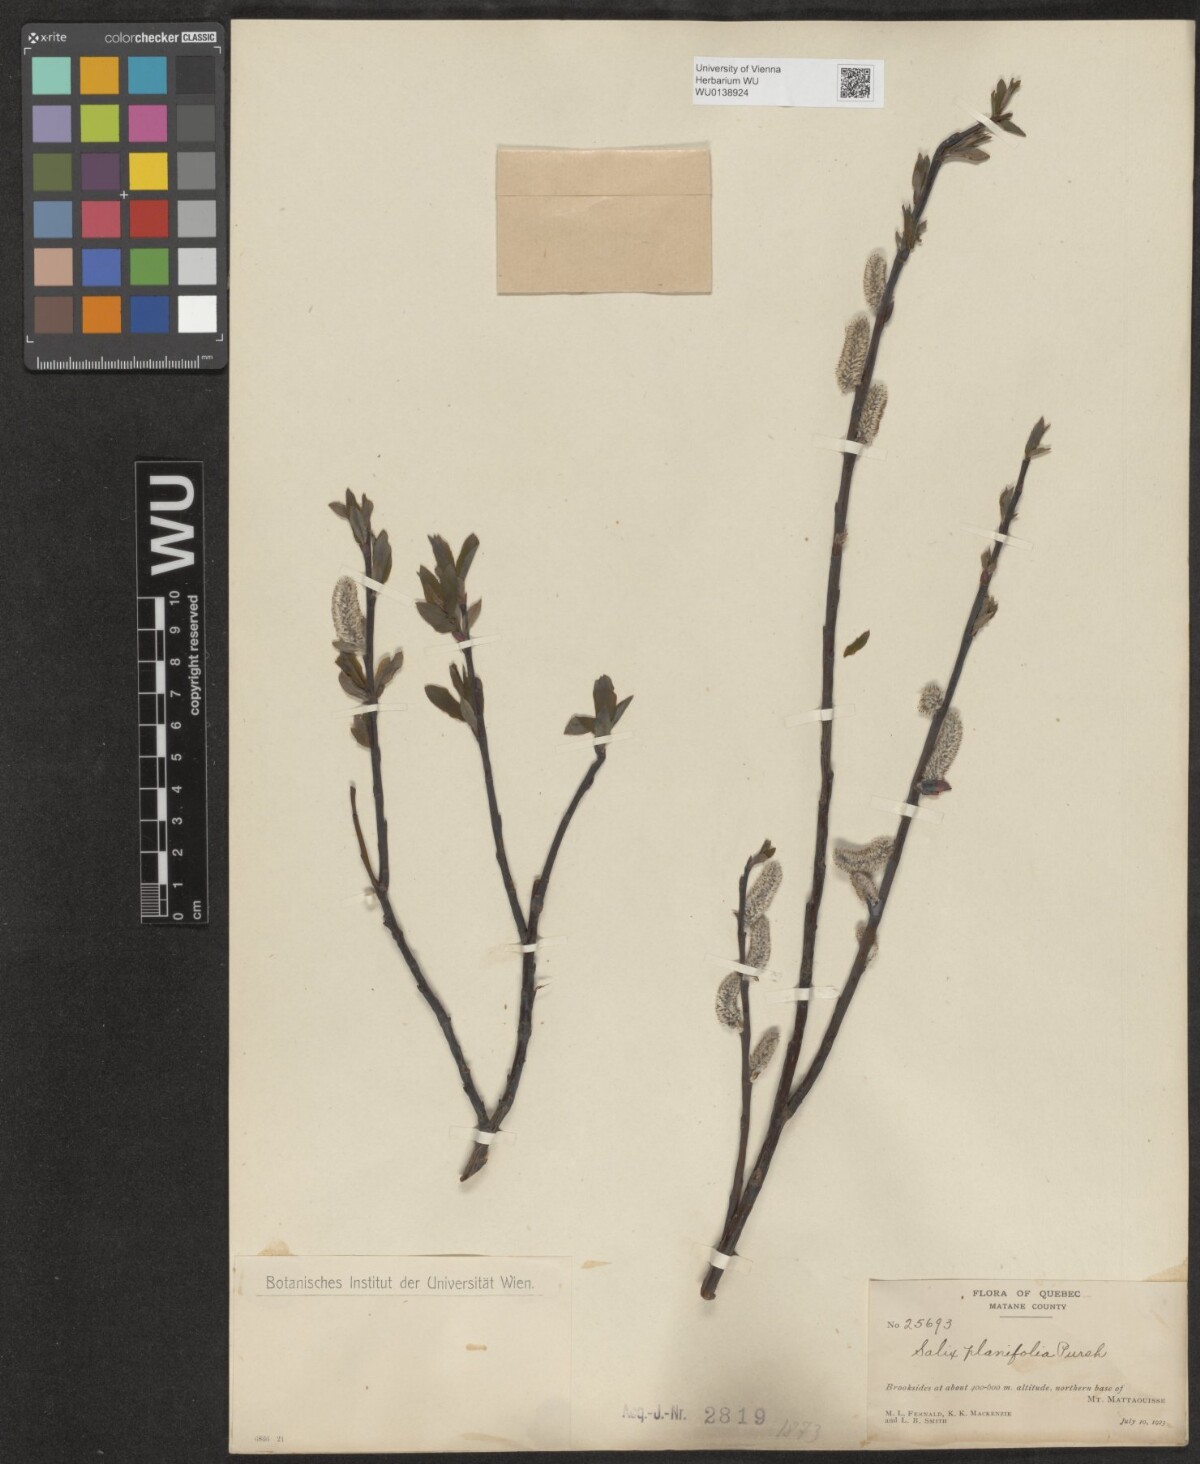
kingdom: Plantae
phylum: Tracheophyta
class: Magnoliopsida
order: Malpighiales
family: Salicaceae
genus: Salix
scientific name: Salix planifolia
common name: Mountain willow
